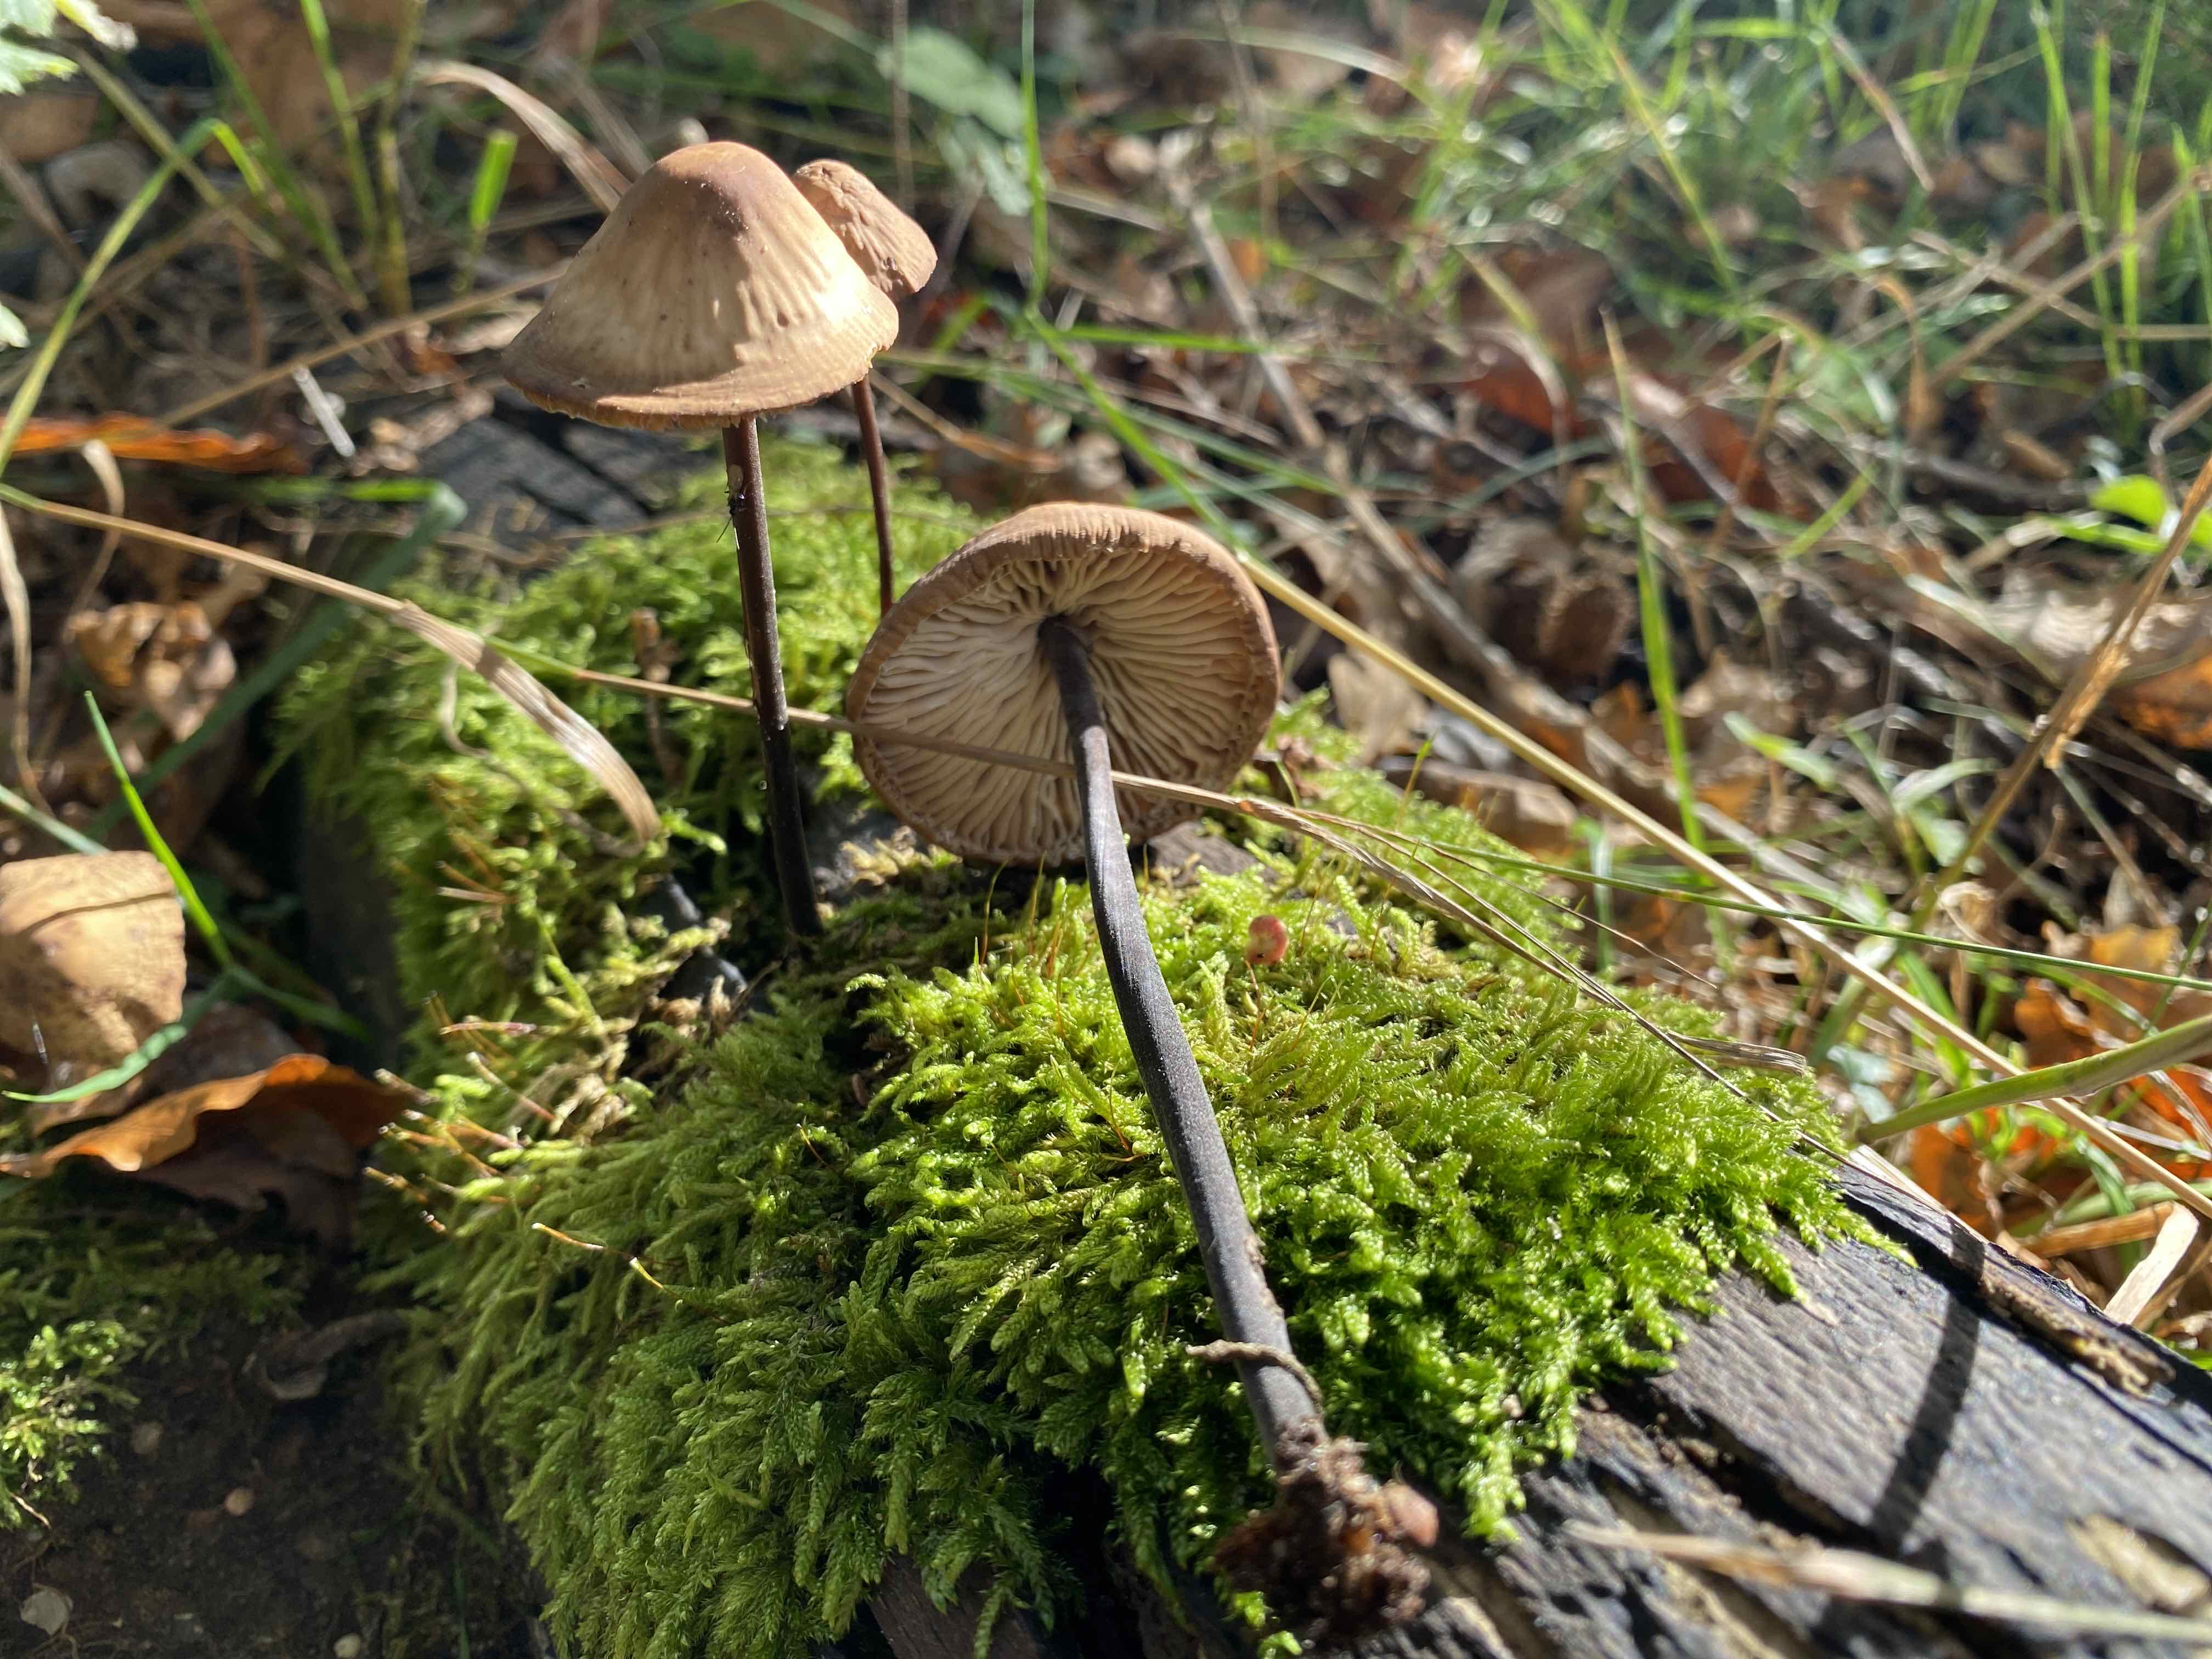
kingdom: Fungi
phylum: Basidiomycota
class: Agaricomycetes
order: Agaricales
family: Omphalotaceae
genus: Mycetinis
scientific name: Mycetinis alliaceus
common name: stor løghat
